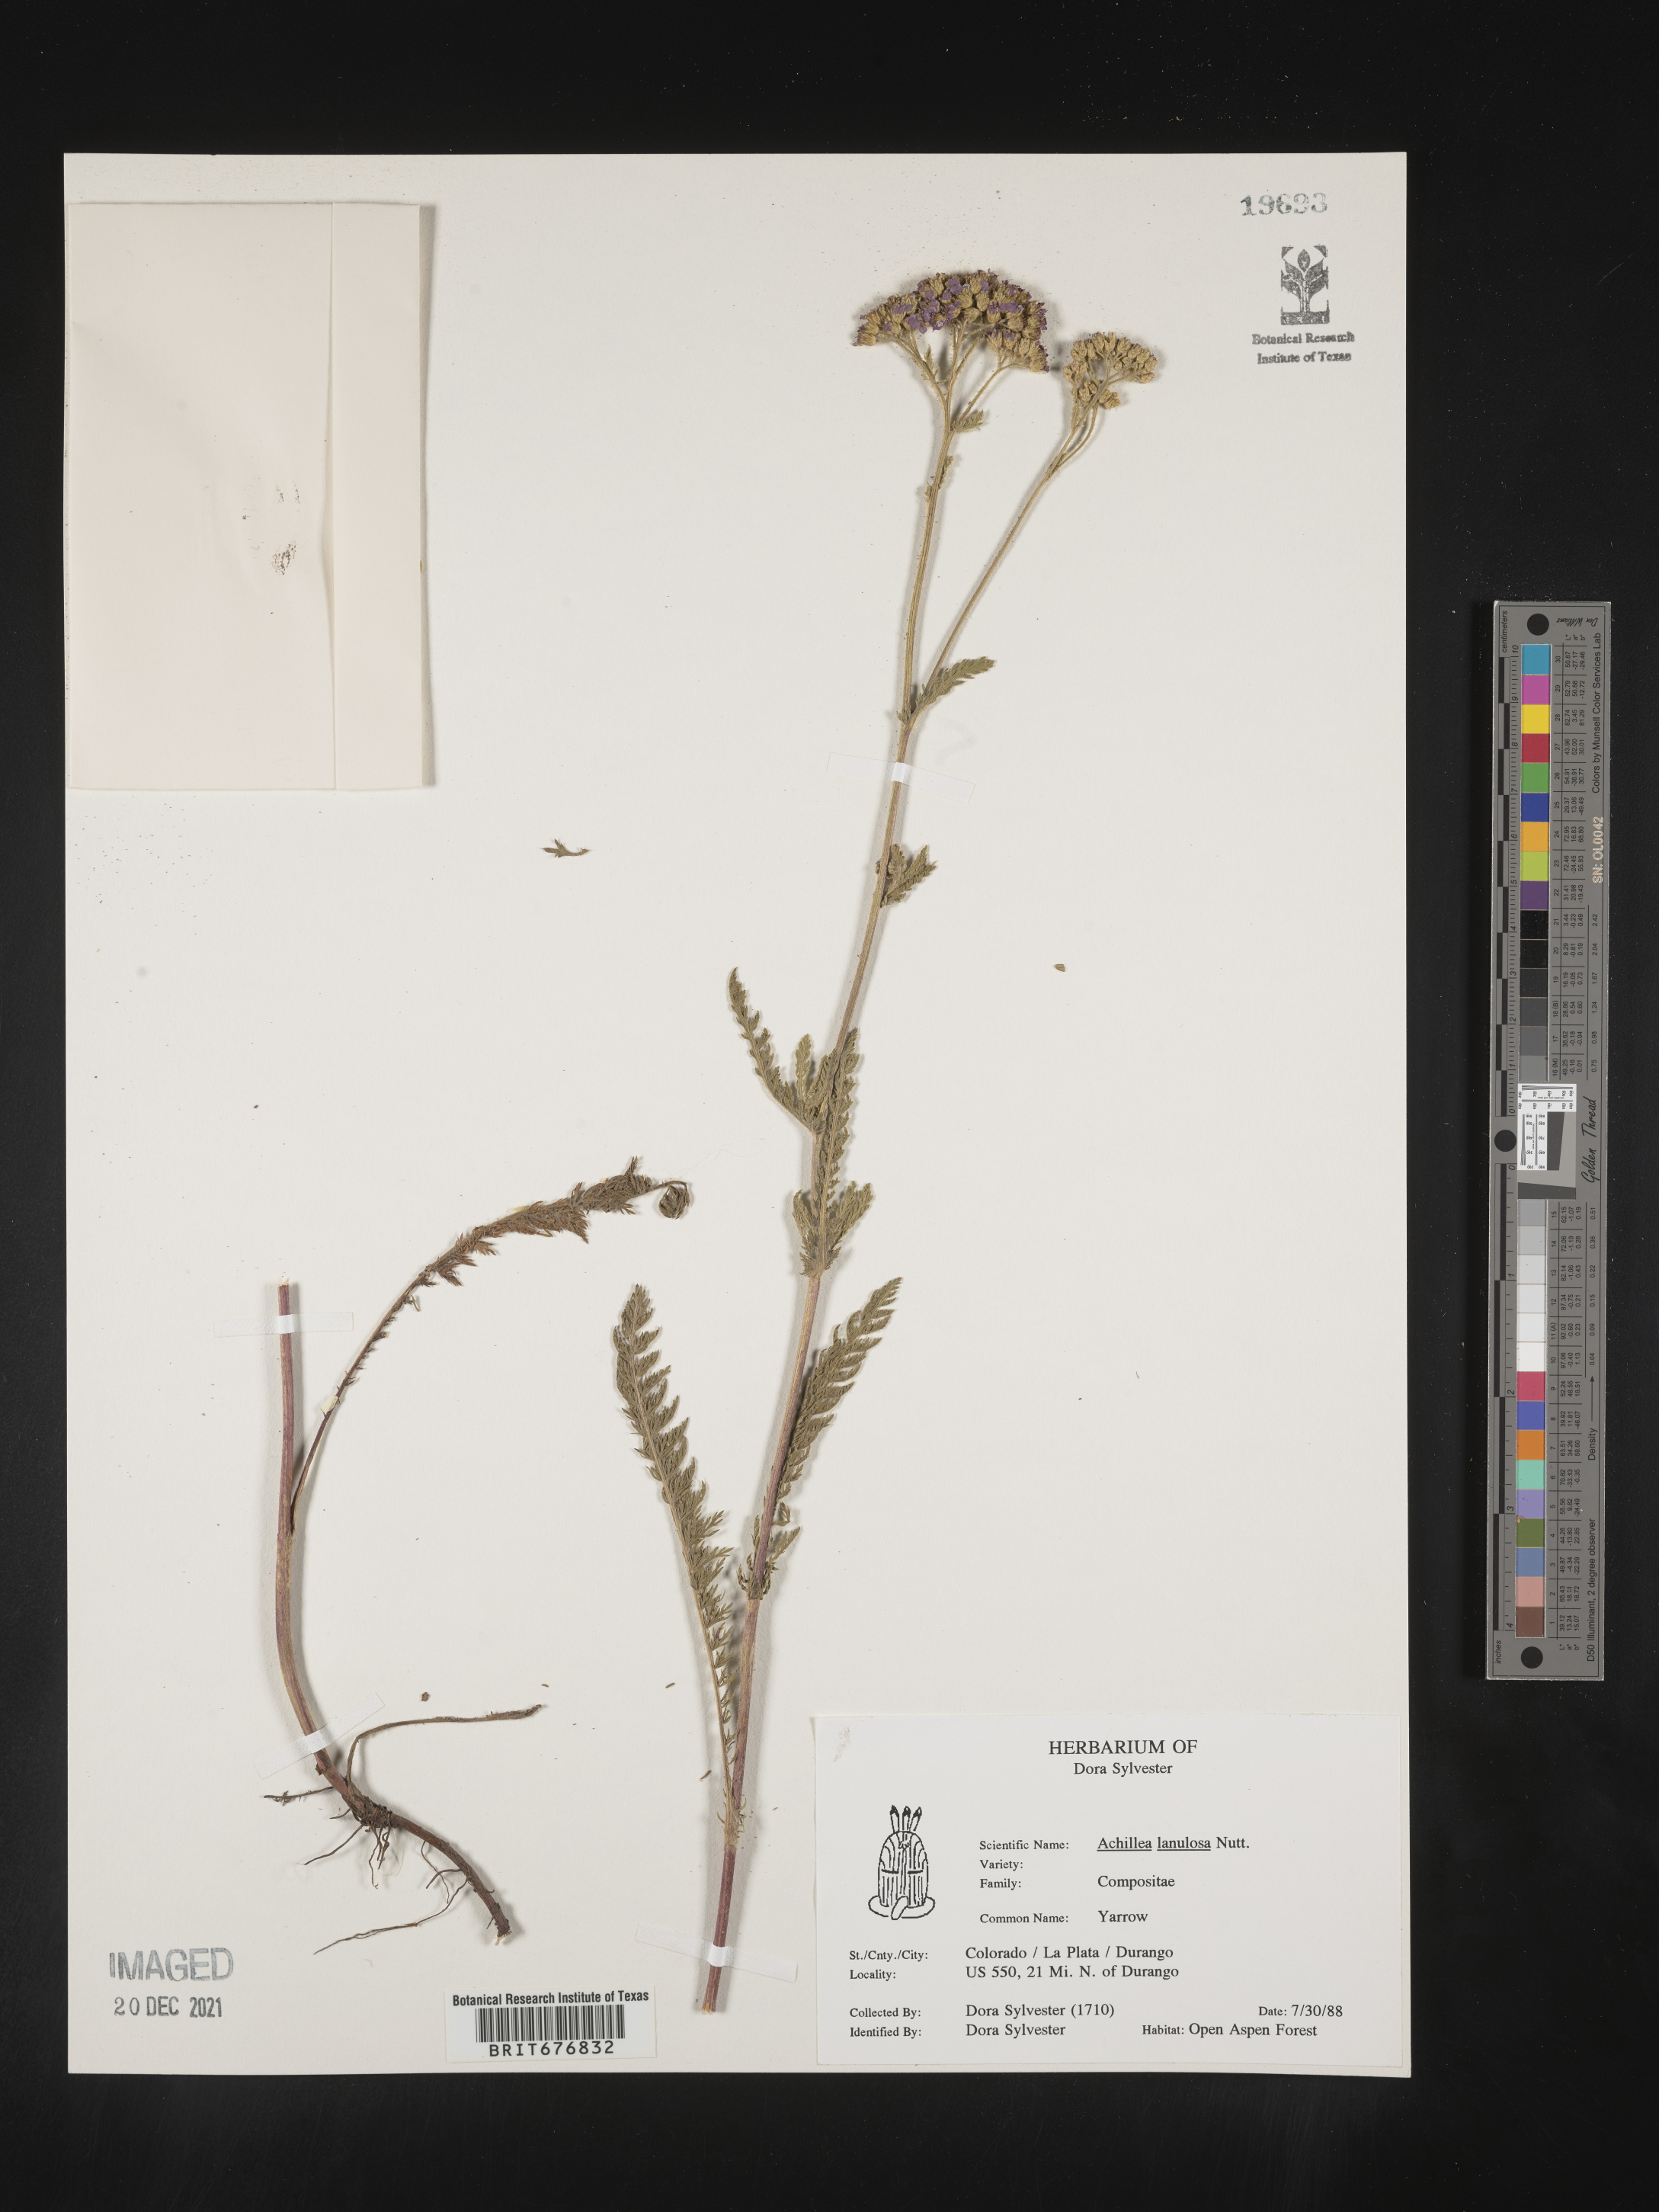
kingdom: Plantae
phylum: Tracheophyta
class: Magnoliopsida
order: Asterales
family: Asteraceae
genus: Achillea
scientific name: Achillea millefolium
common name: Yarrow
